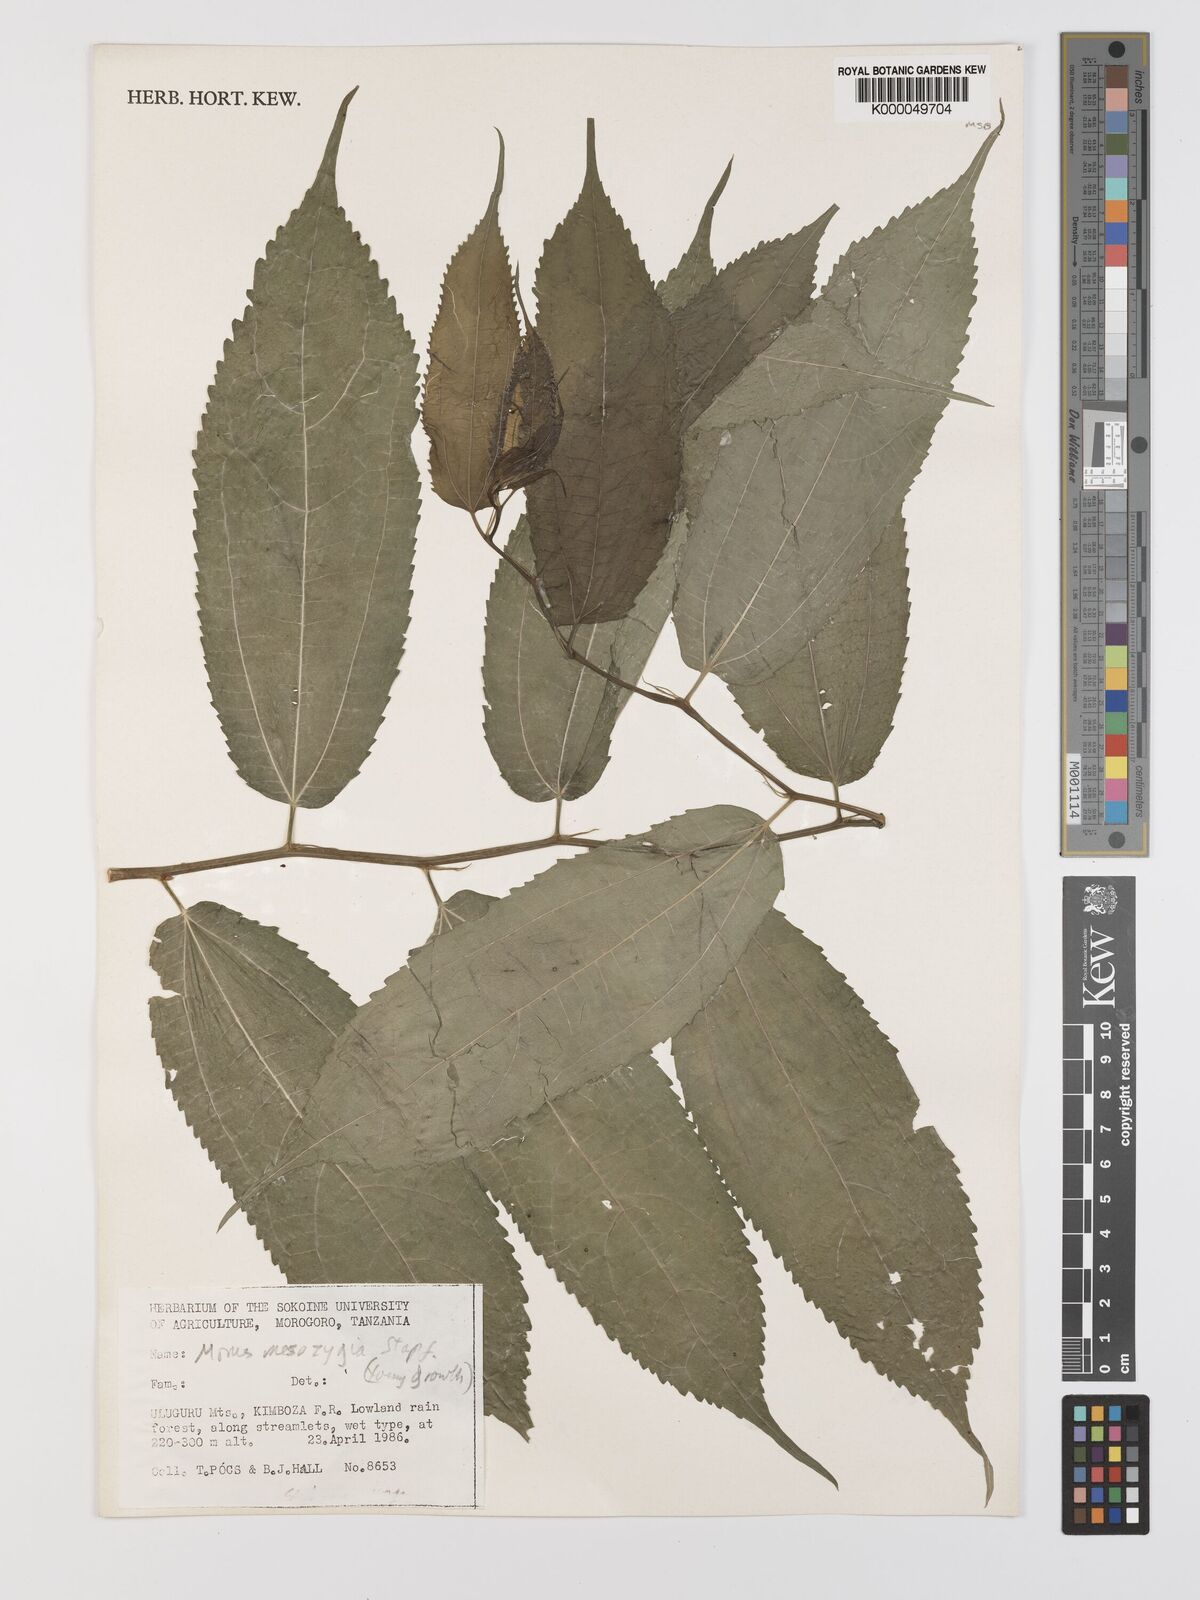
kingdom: Plantae
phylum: Tracheophyta
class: Magnoliopsida
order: Rosales
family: Moraceae
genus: Afromorus
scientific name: Afromorus mesozygia
